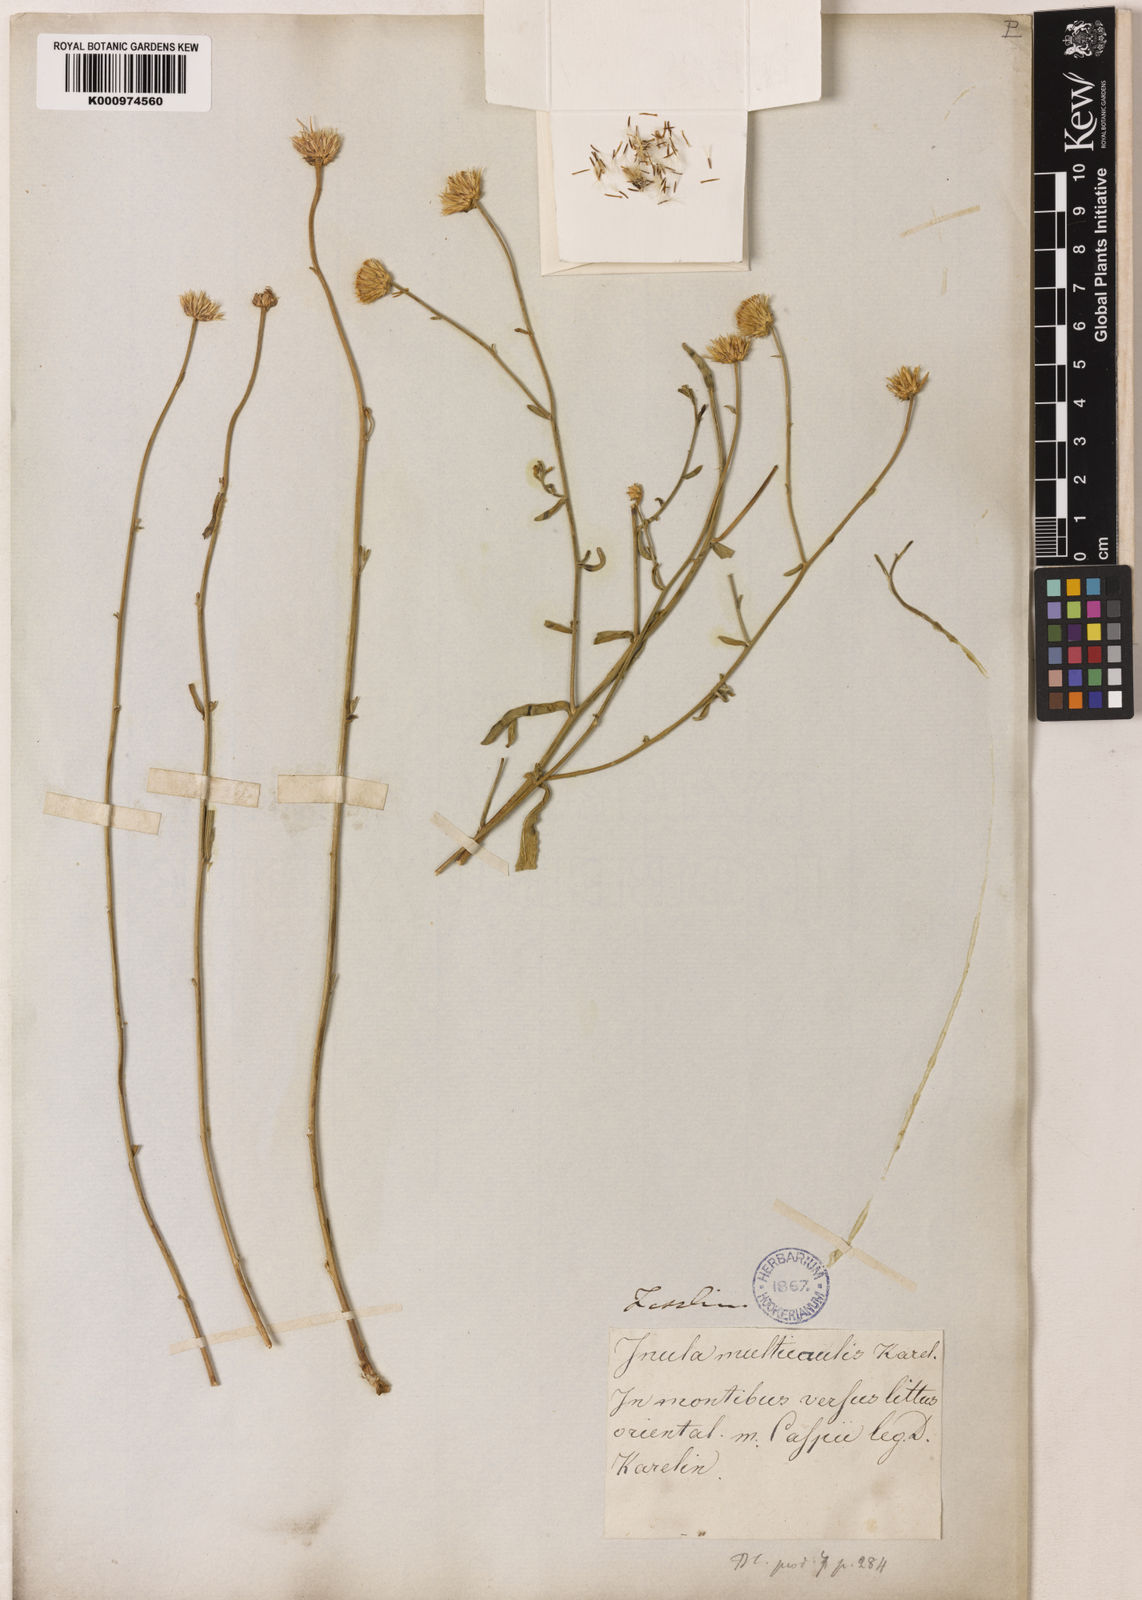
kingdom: Plantae
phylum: Tracheophyta
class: Magnoliopsida
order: Asterales
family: Asteraceae
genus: Inula
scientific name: Inula anatolica
